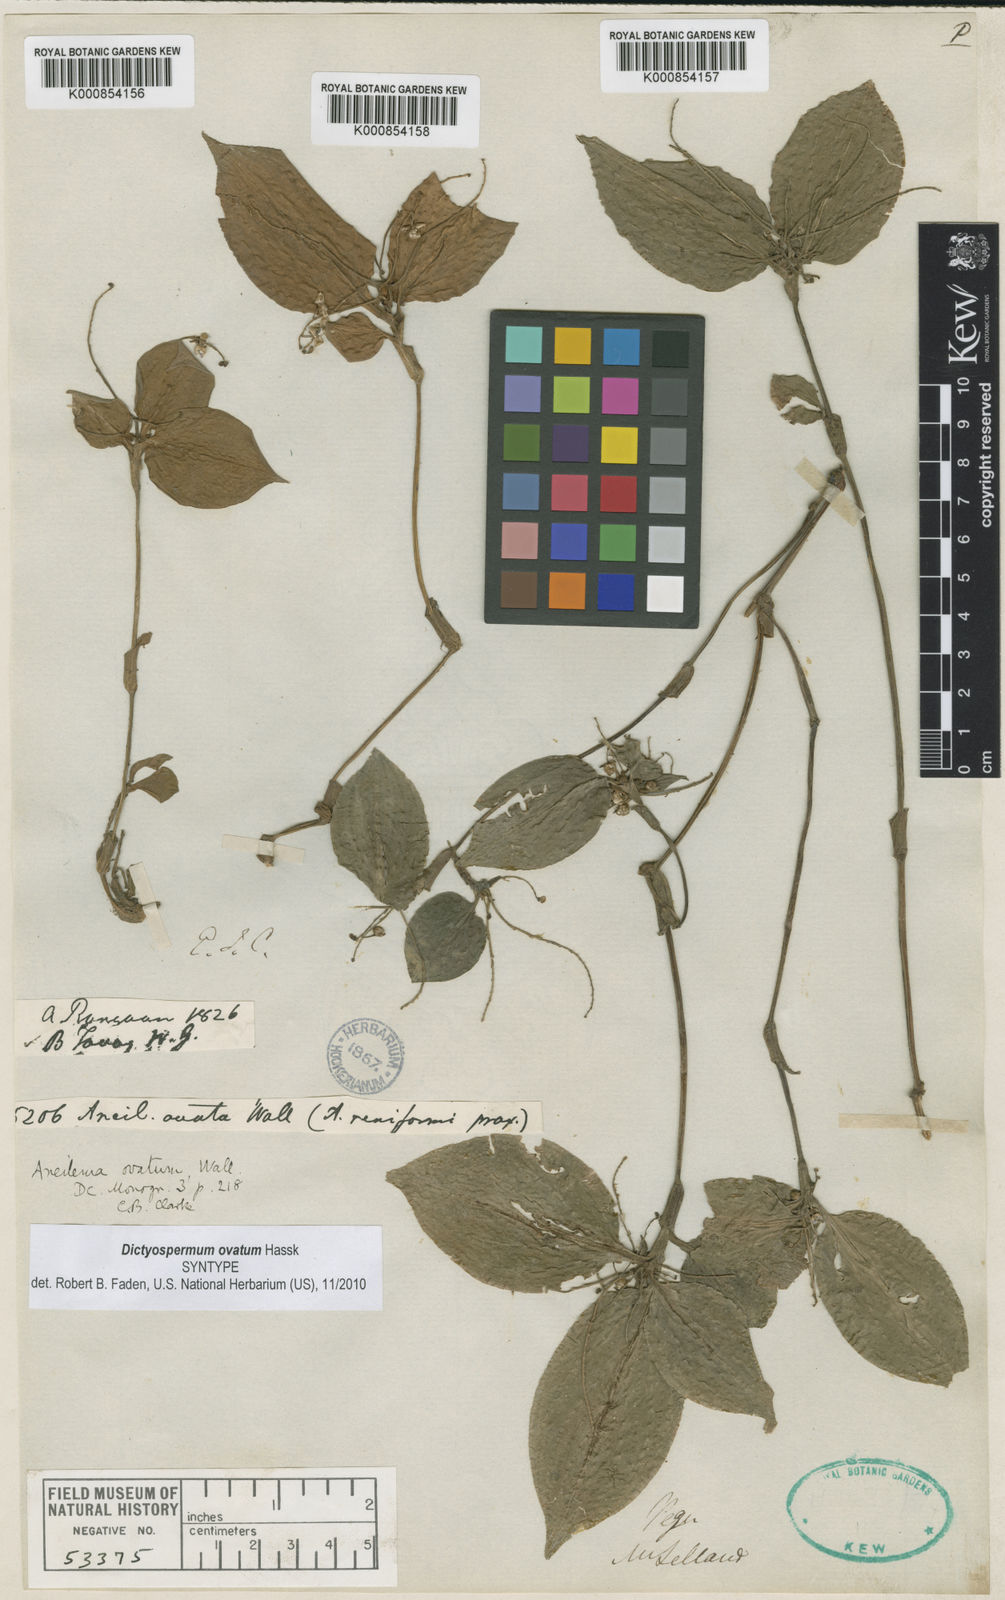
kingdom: Plantae
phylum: Tracheophyta
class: Liliopsida
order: Commelinales
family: Commelinaceae
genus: Dictyospermum
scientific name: Dictyospermum ovatum
